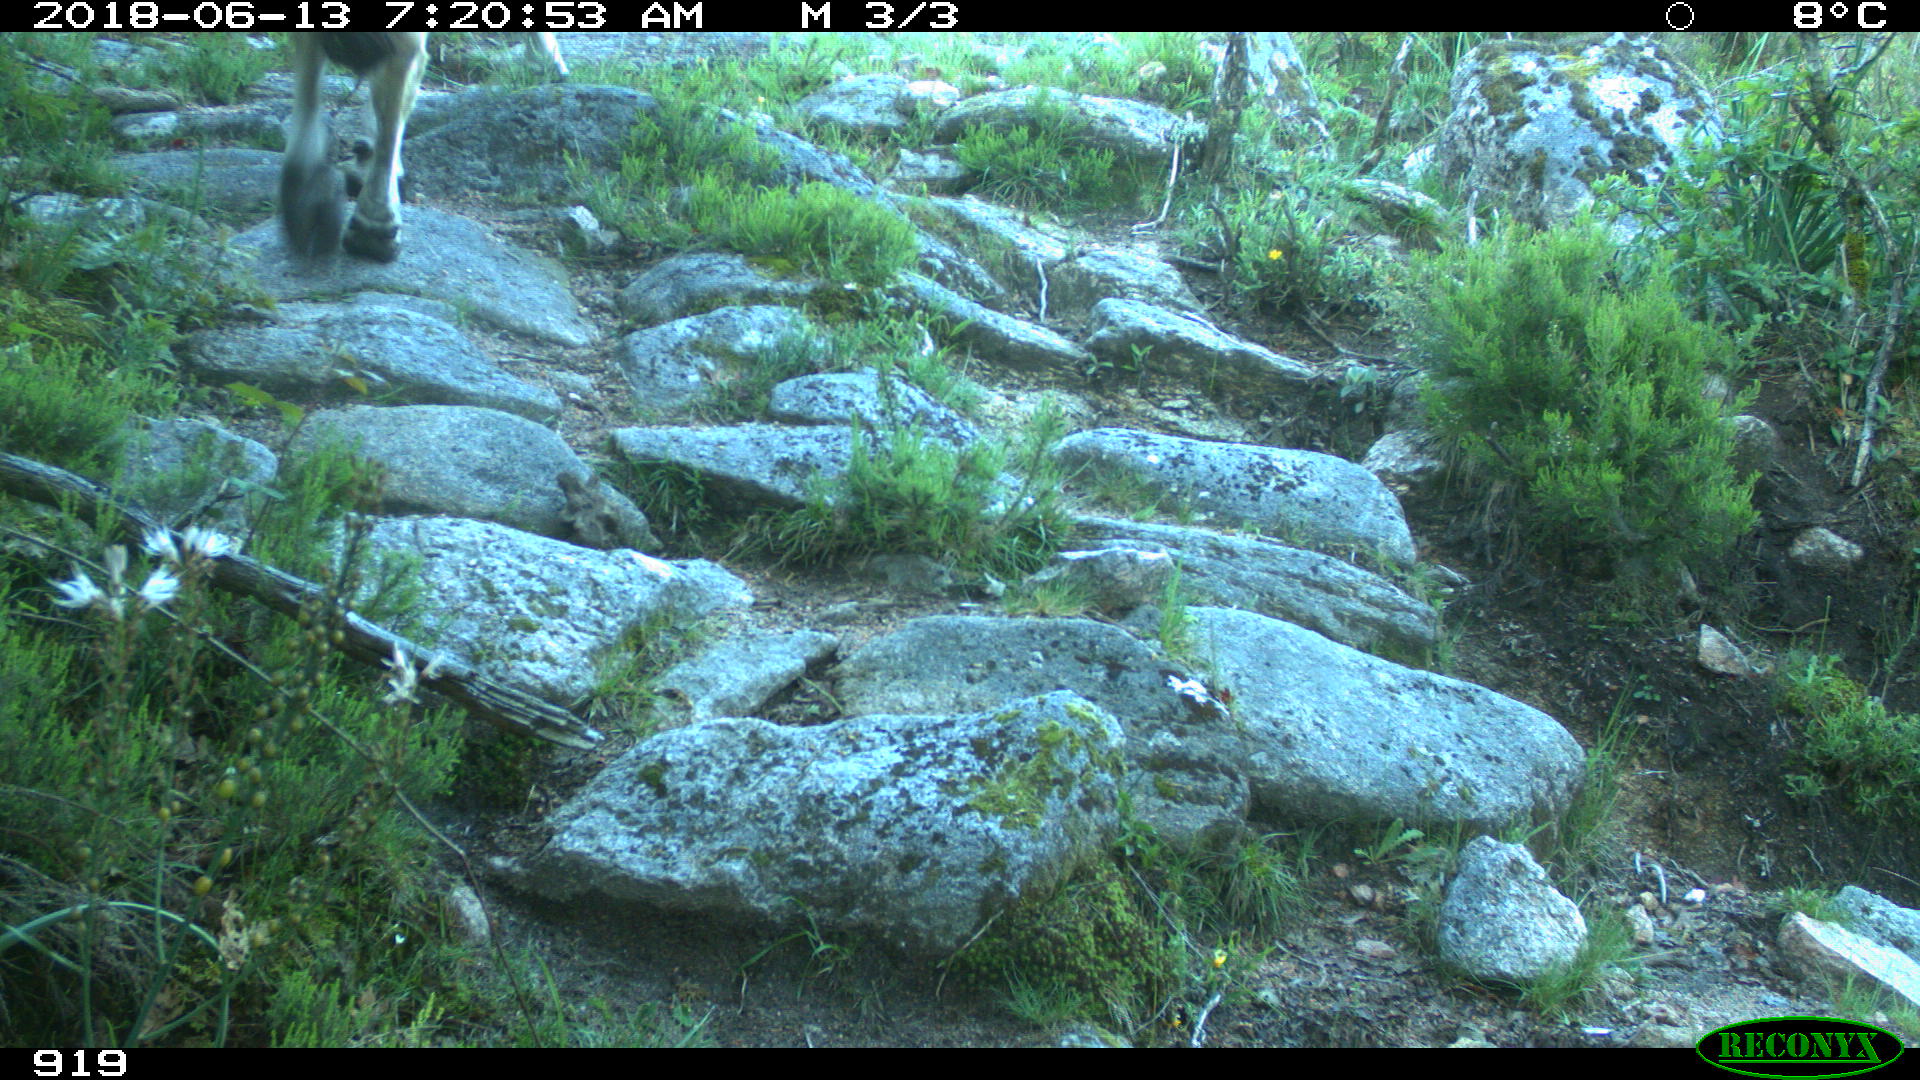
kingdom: Animalia
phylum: Chordata
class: Mammalia
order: Artiodactyla
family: Bovidae
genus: Bos
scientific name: Bos taurus
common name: Domesticated cattle
